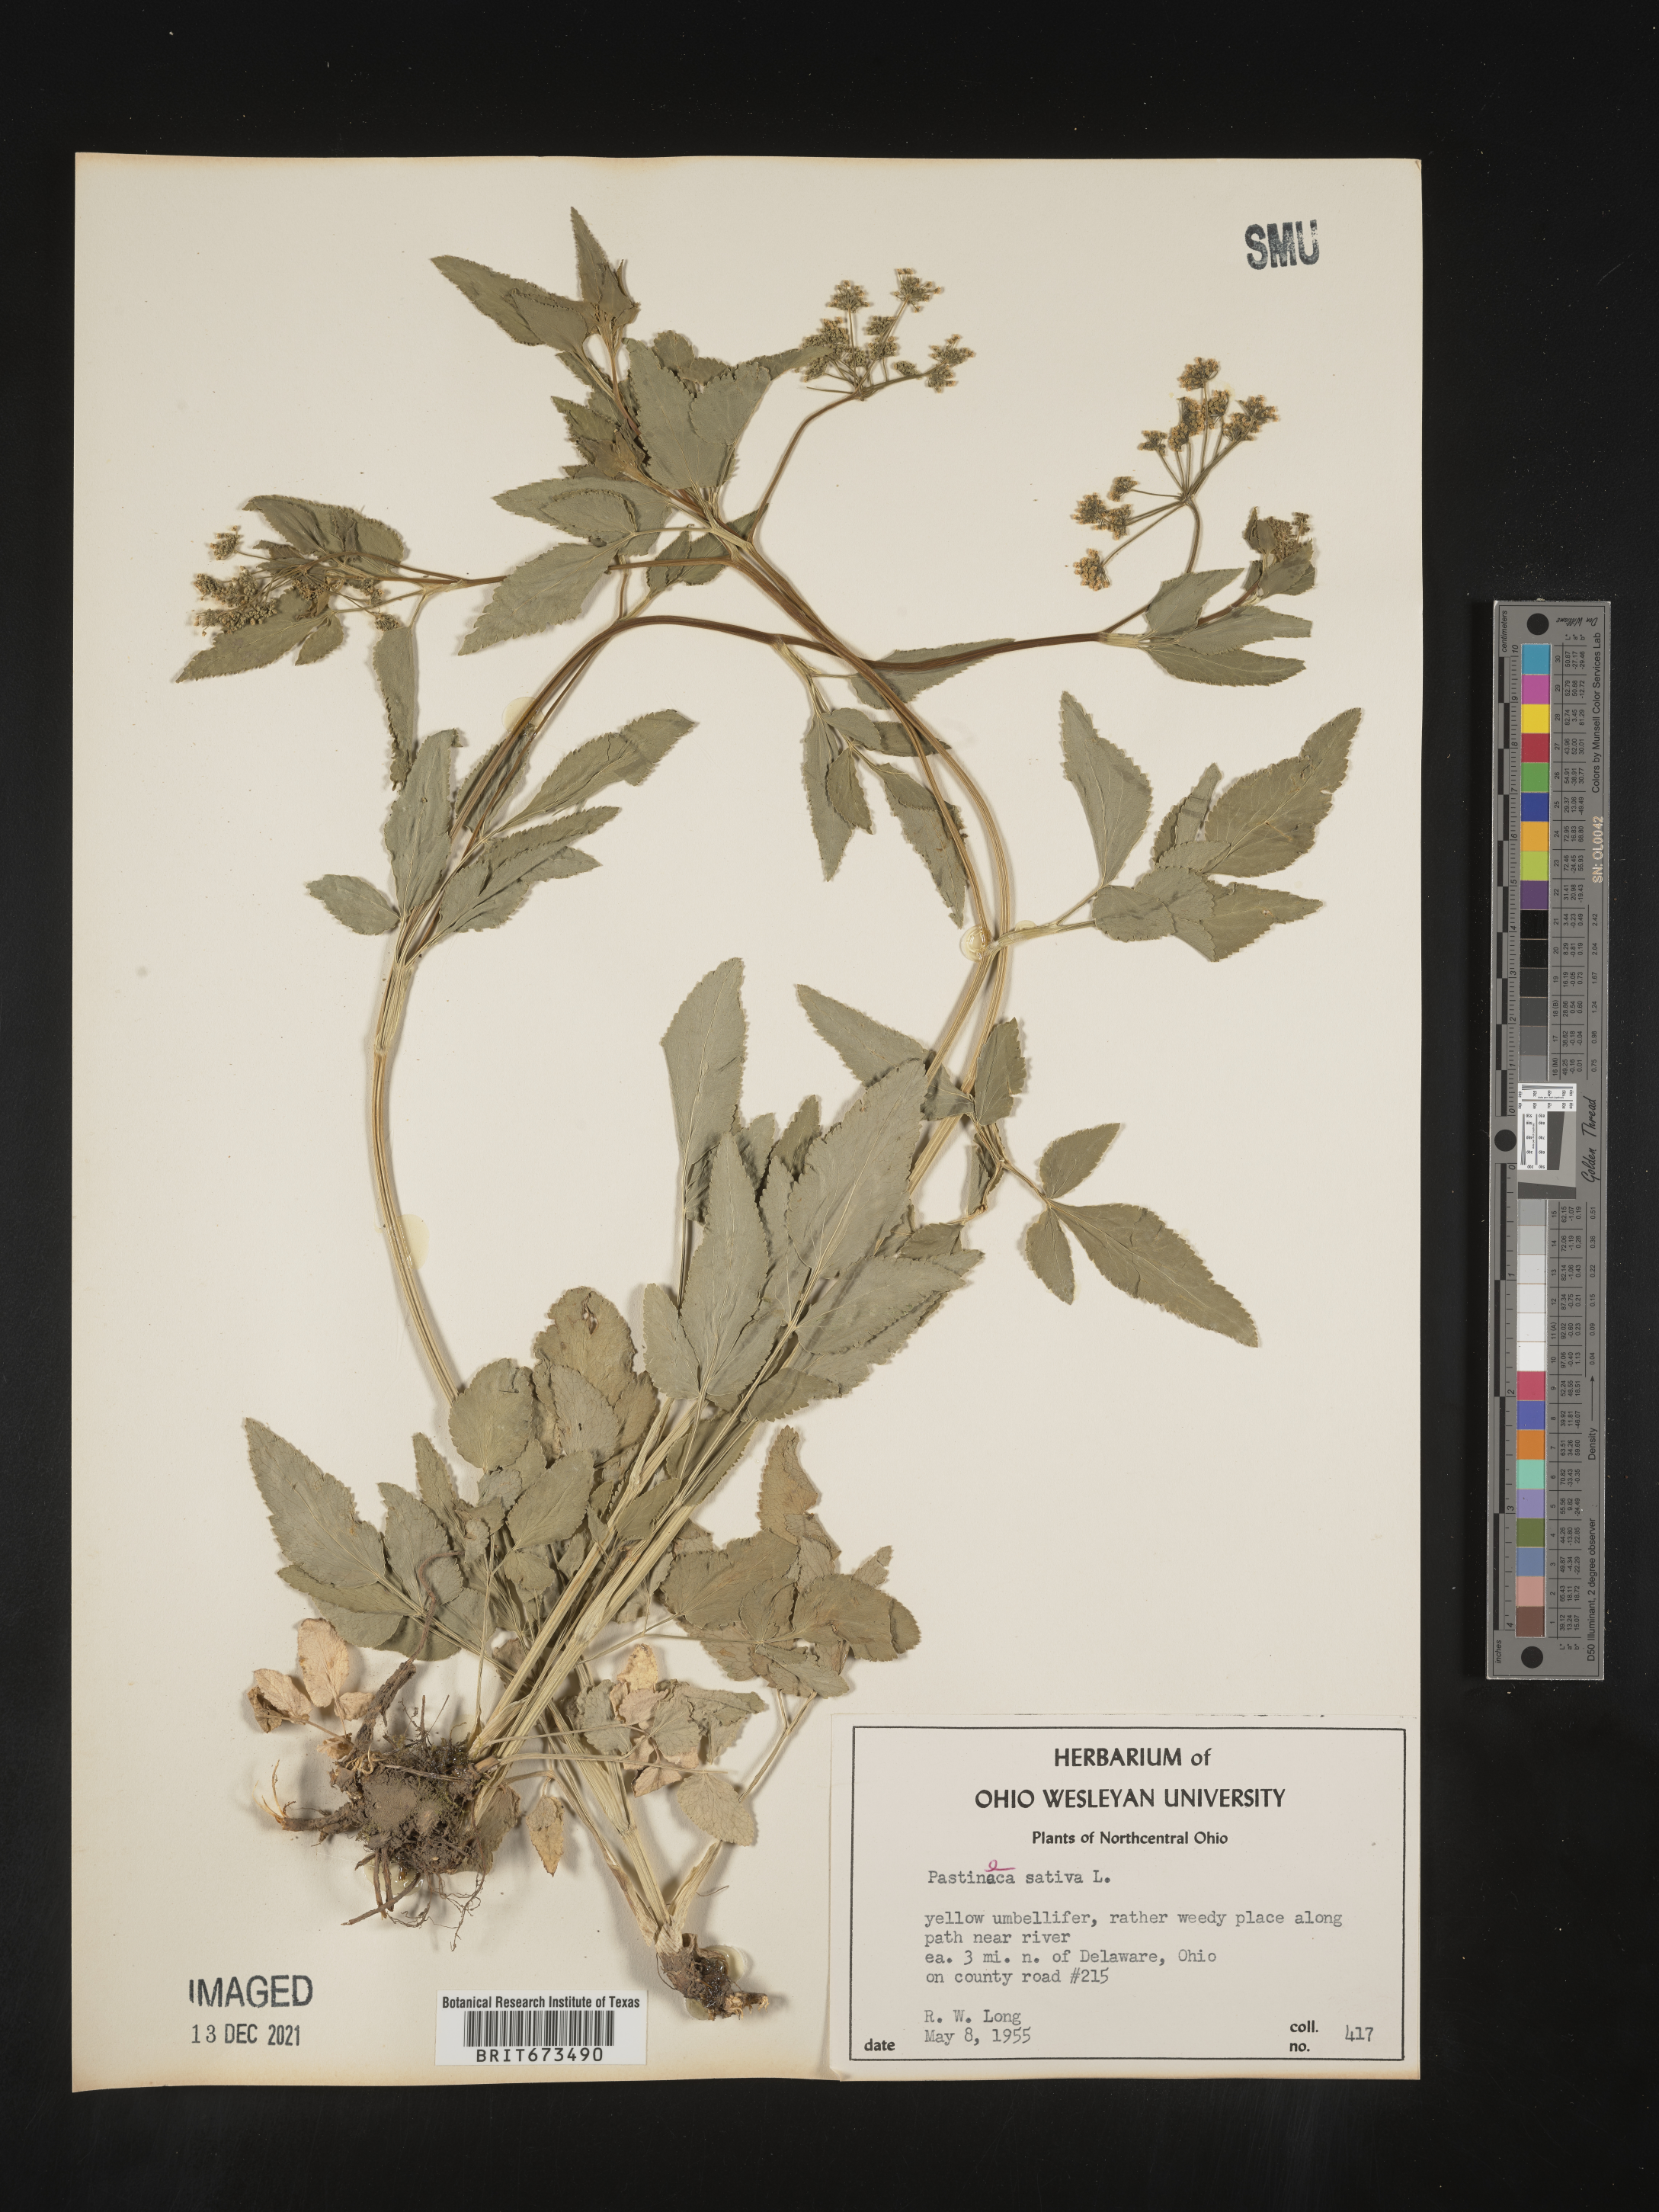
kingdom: Plantae
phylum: Tracheophyta
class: Magnoliopsida
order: Apiales
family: Apiaceae
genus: Zizia
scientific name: Zizia trifoliata
